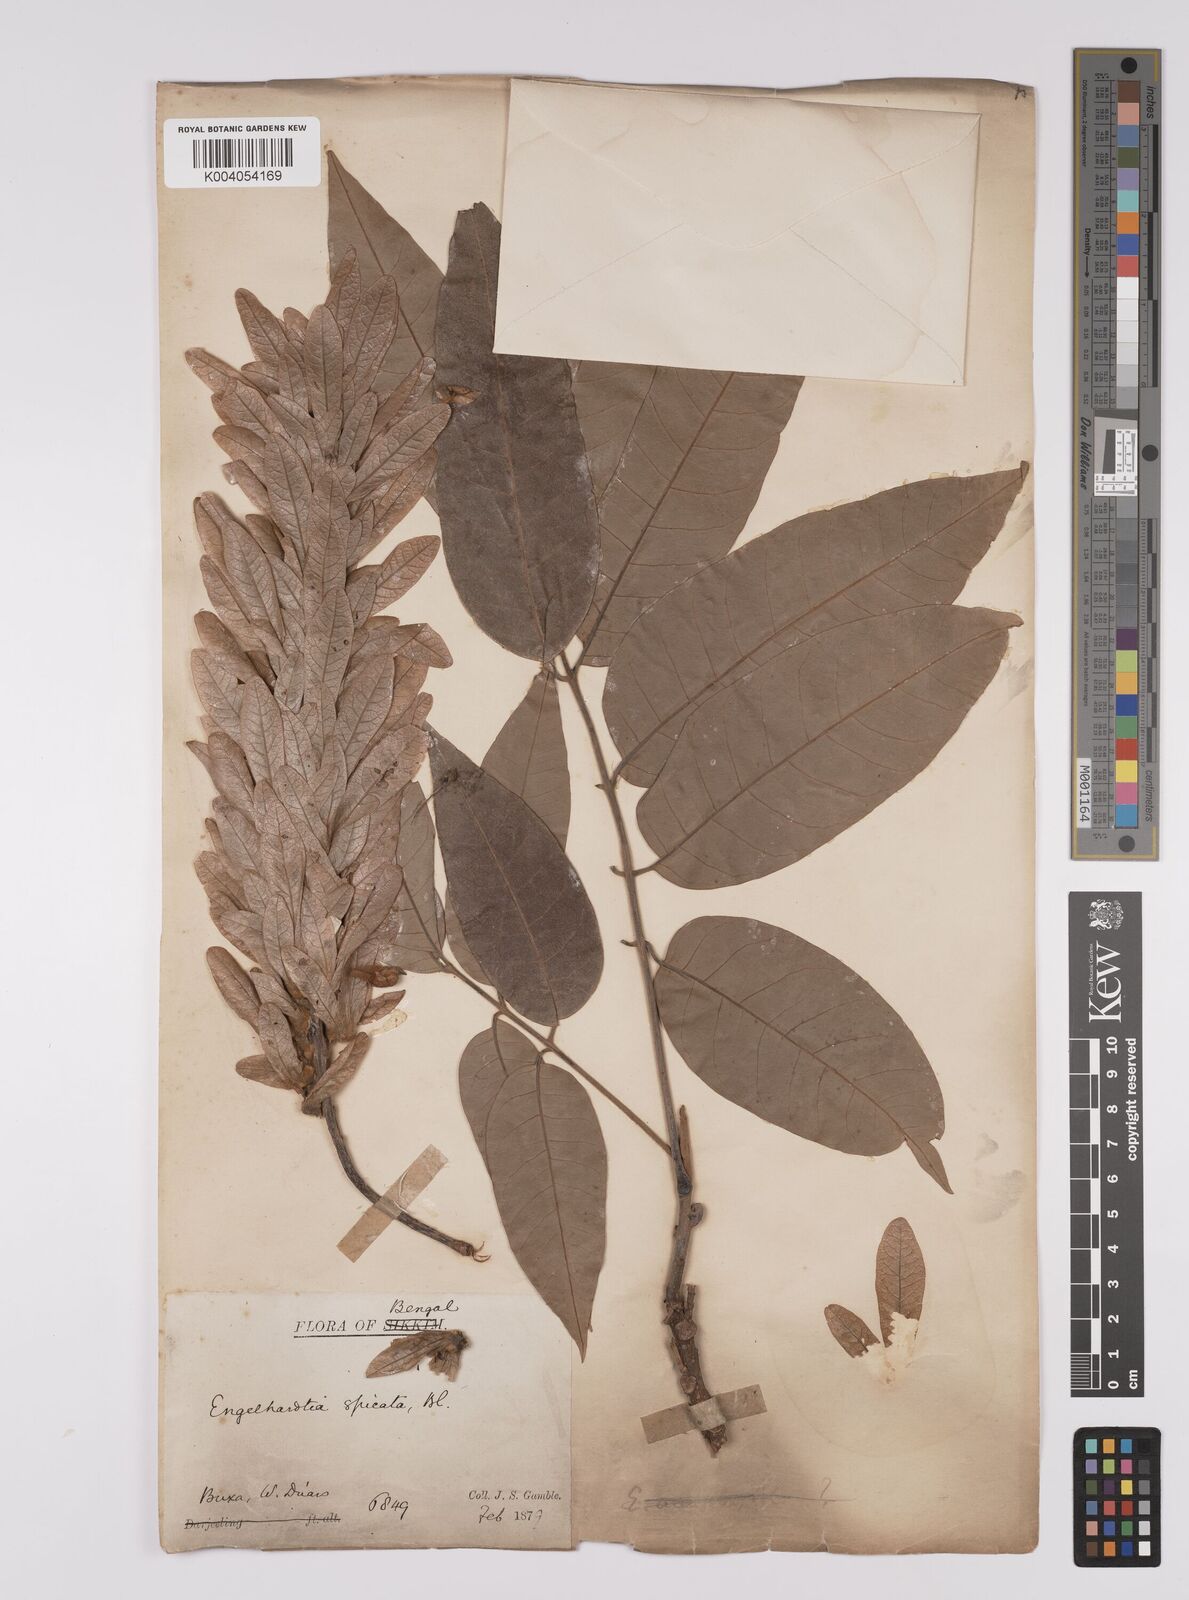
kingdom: Plantae
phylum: Tracheophyta
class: Magnoliopsida
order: Fagales
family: Juglandaceae
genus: Engelhardia
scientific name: Engelhardia spicata
